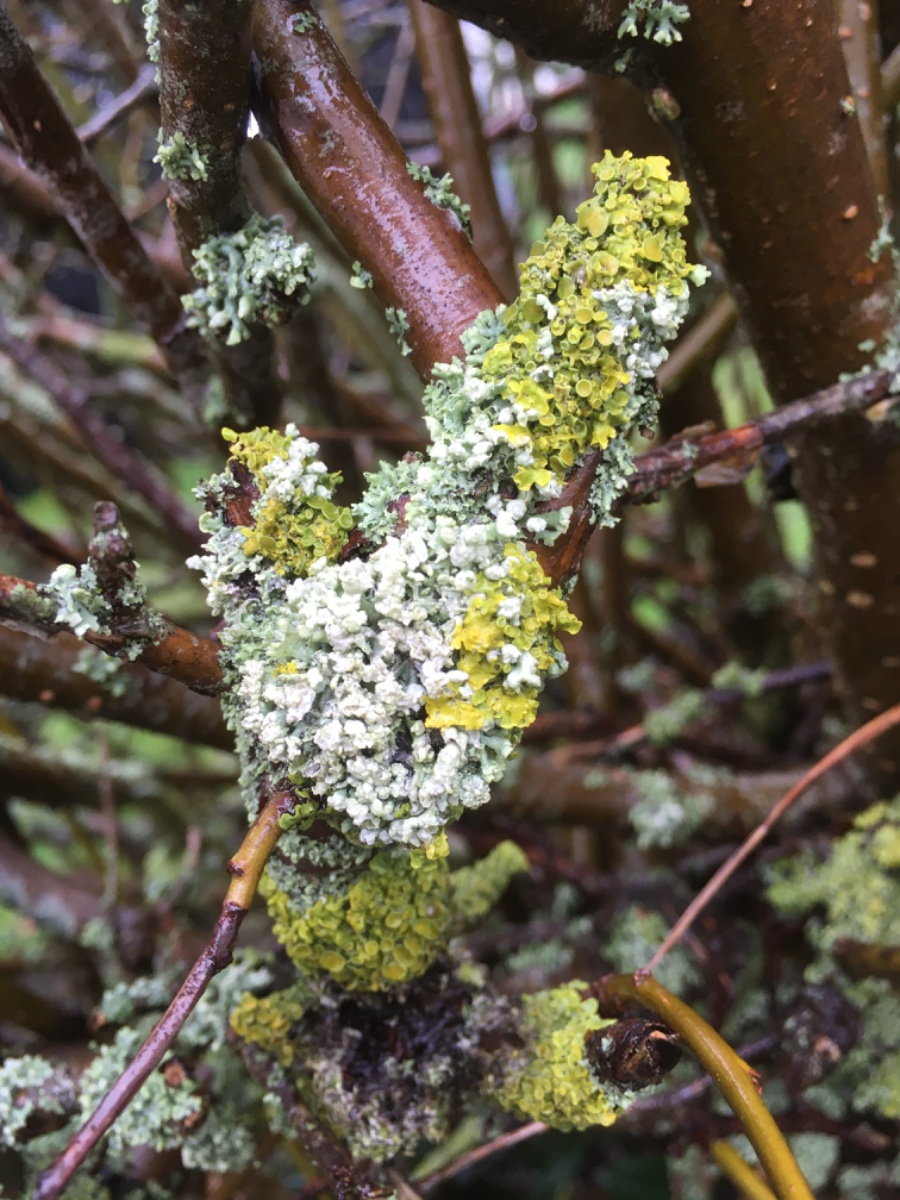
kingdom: Fungi
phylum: Ascomycota
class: Lecanoromycetes
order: Teloschistales
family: Teloschistaceae
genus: Xanthoria
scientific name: Xanthoria parietina
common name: almindelig væggelav
